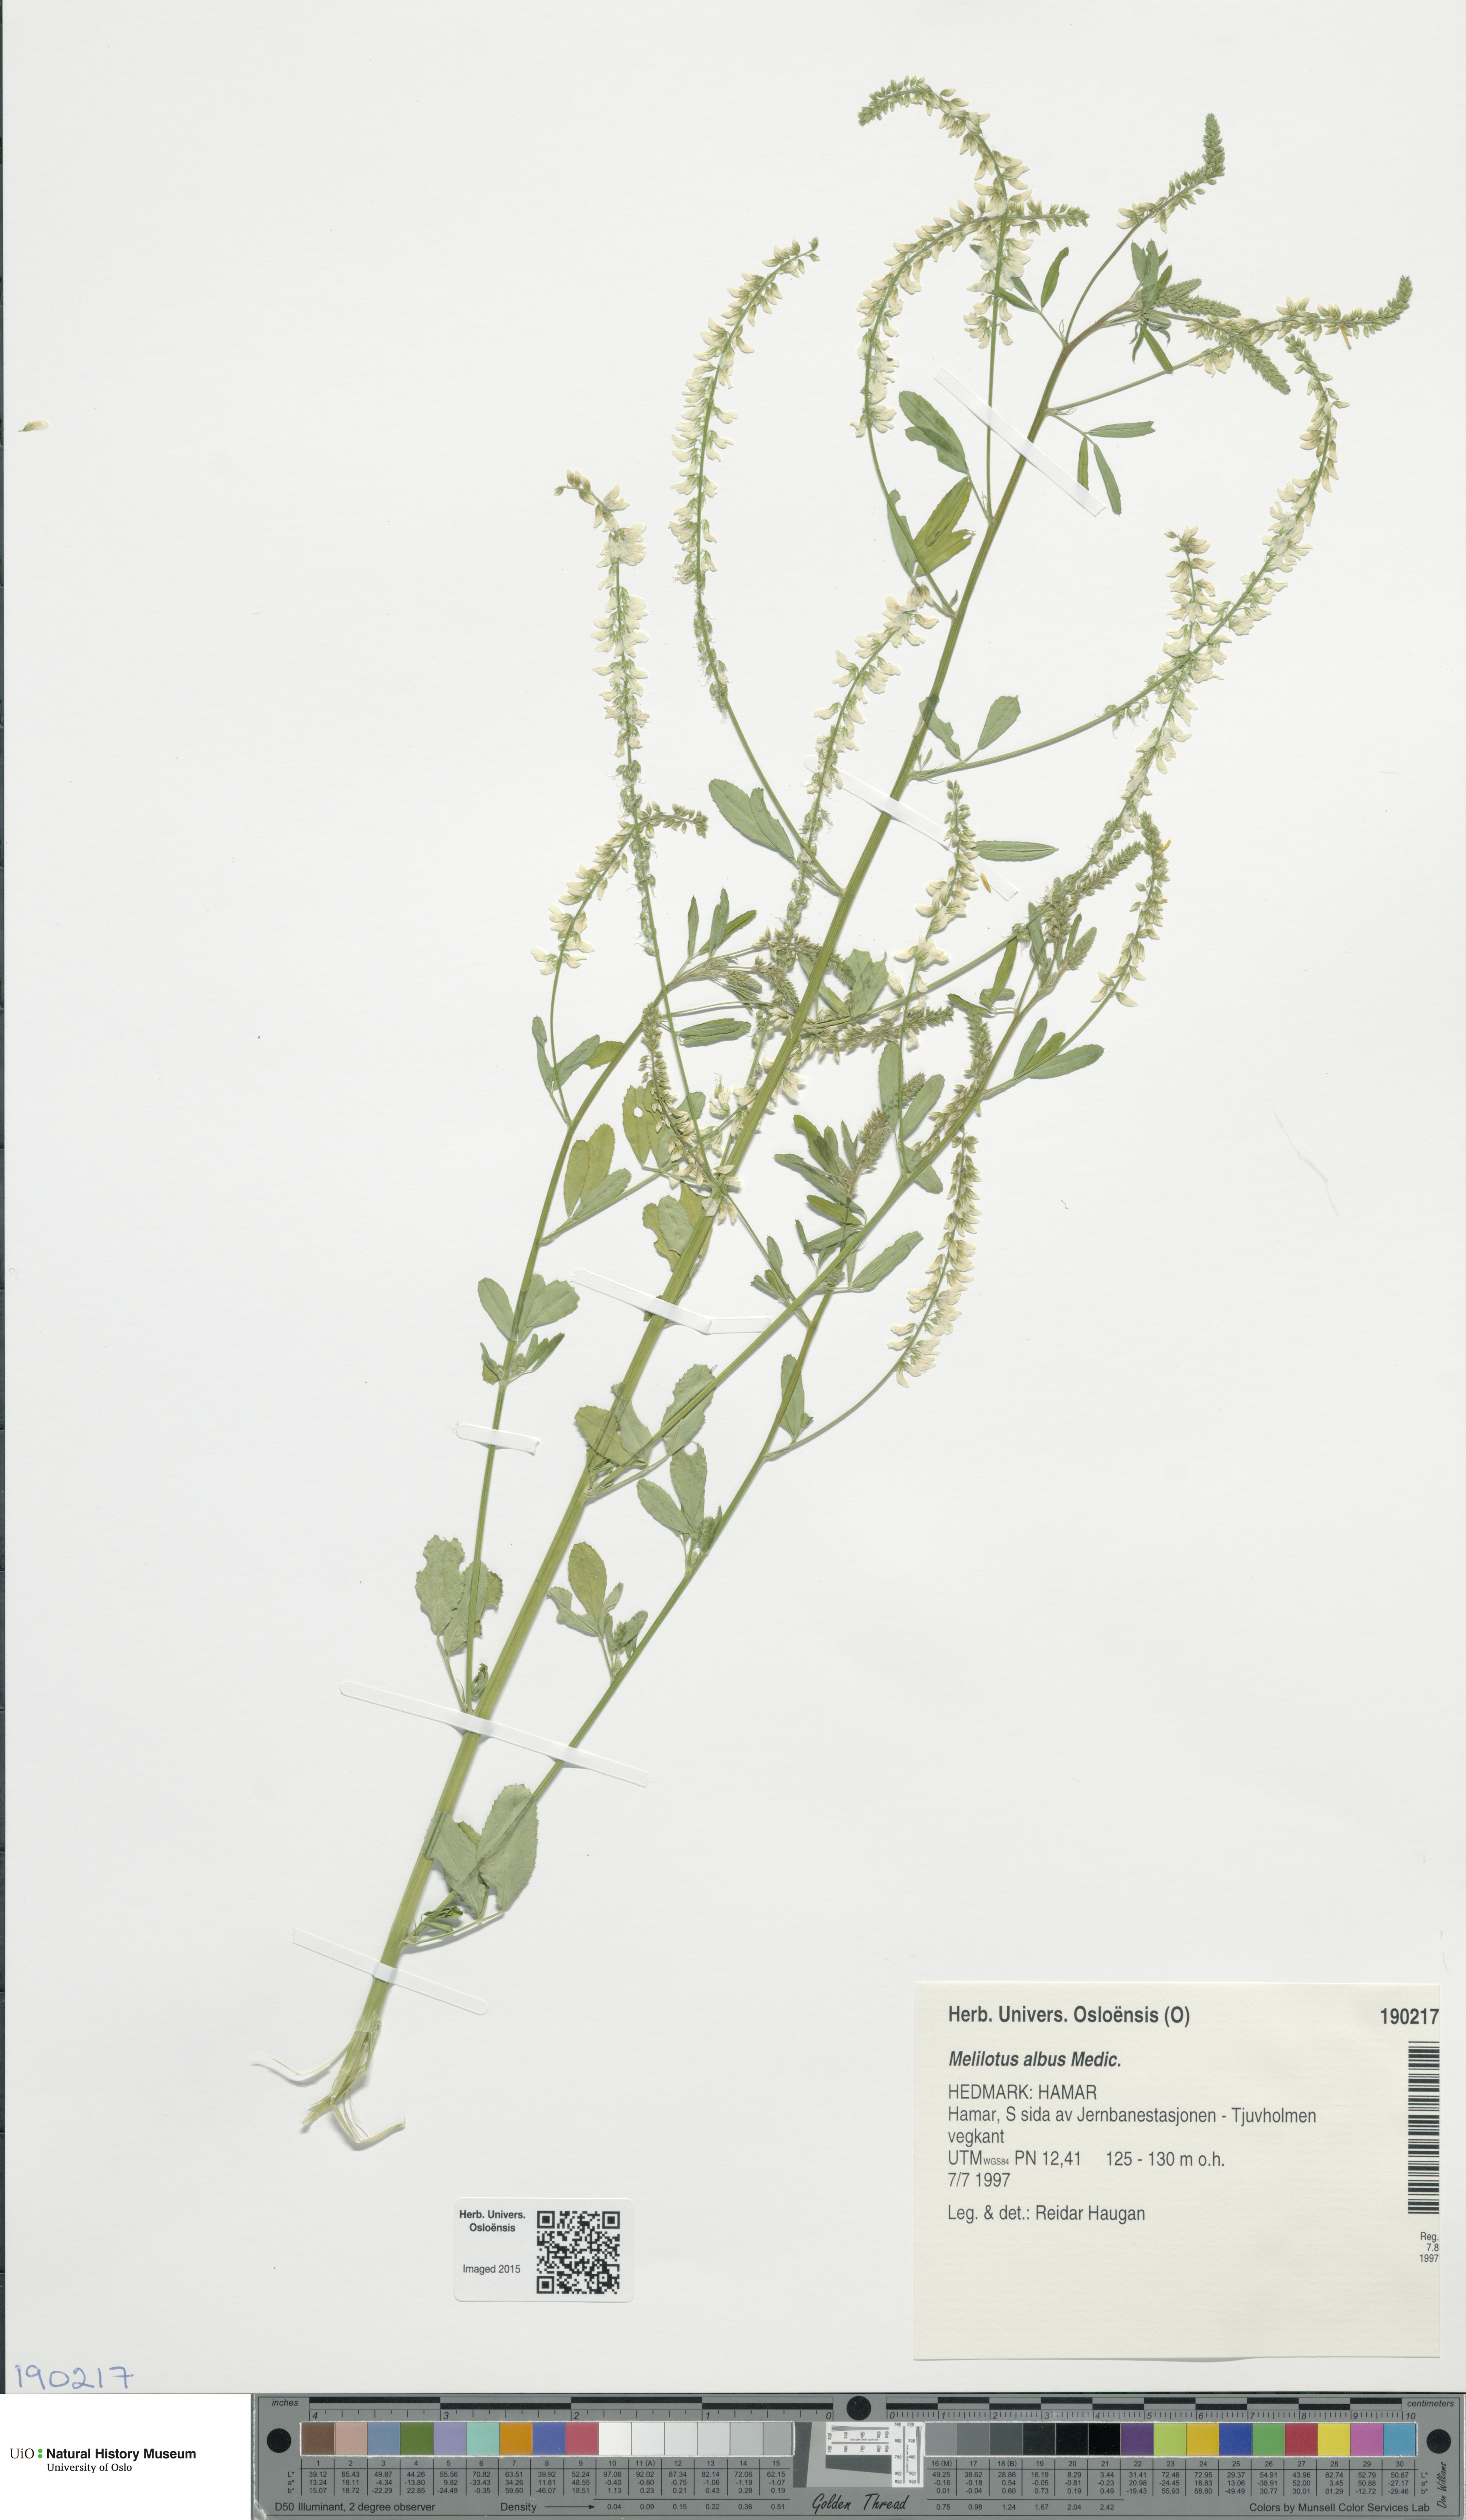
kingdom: Plantae
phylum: Tracheophyta
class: Magnoliopsida
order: Fabales
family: Fabaceae
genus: Melilotus
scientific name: Melilotus albus
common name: White melilot
